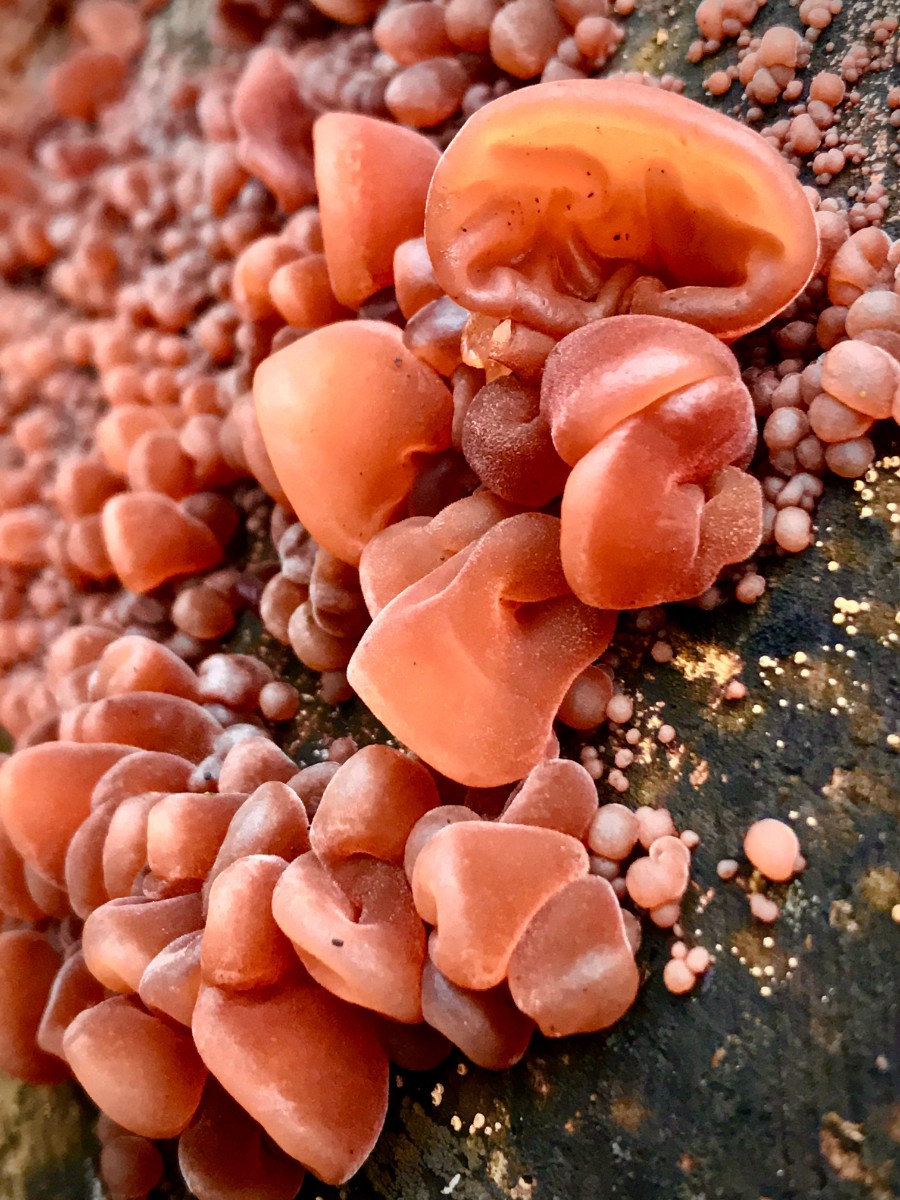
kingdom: Fungi
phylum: Basidiomycota
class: Agaricomycetes
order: Auriculariales
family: Auriculariaceae
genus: Auricularia
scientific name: Auricularia auricula-judae
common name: almindelig judasøre
